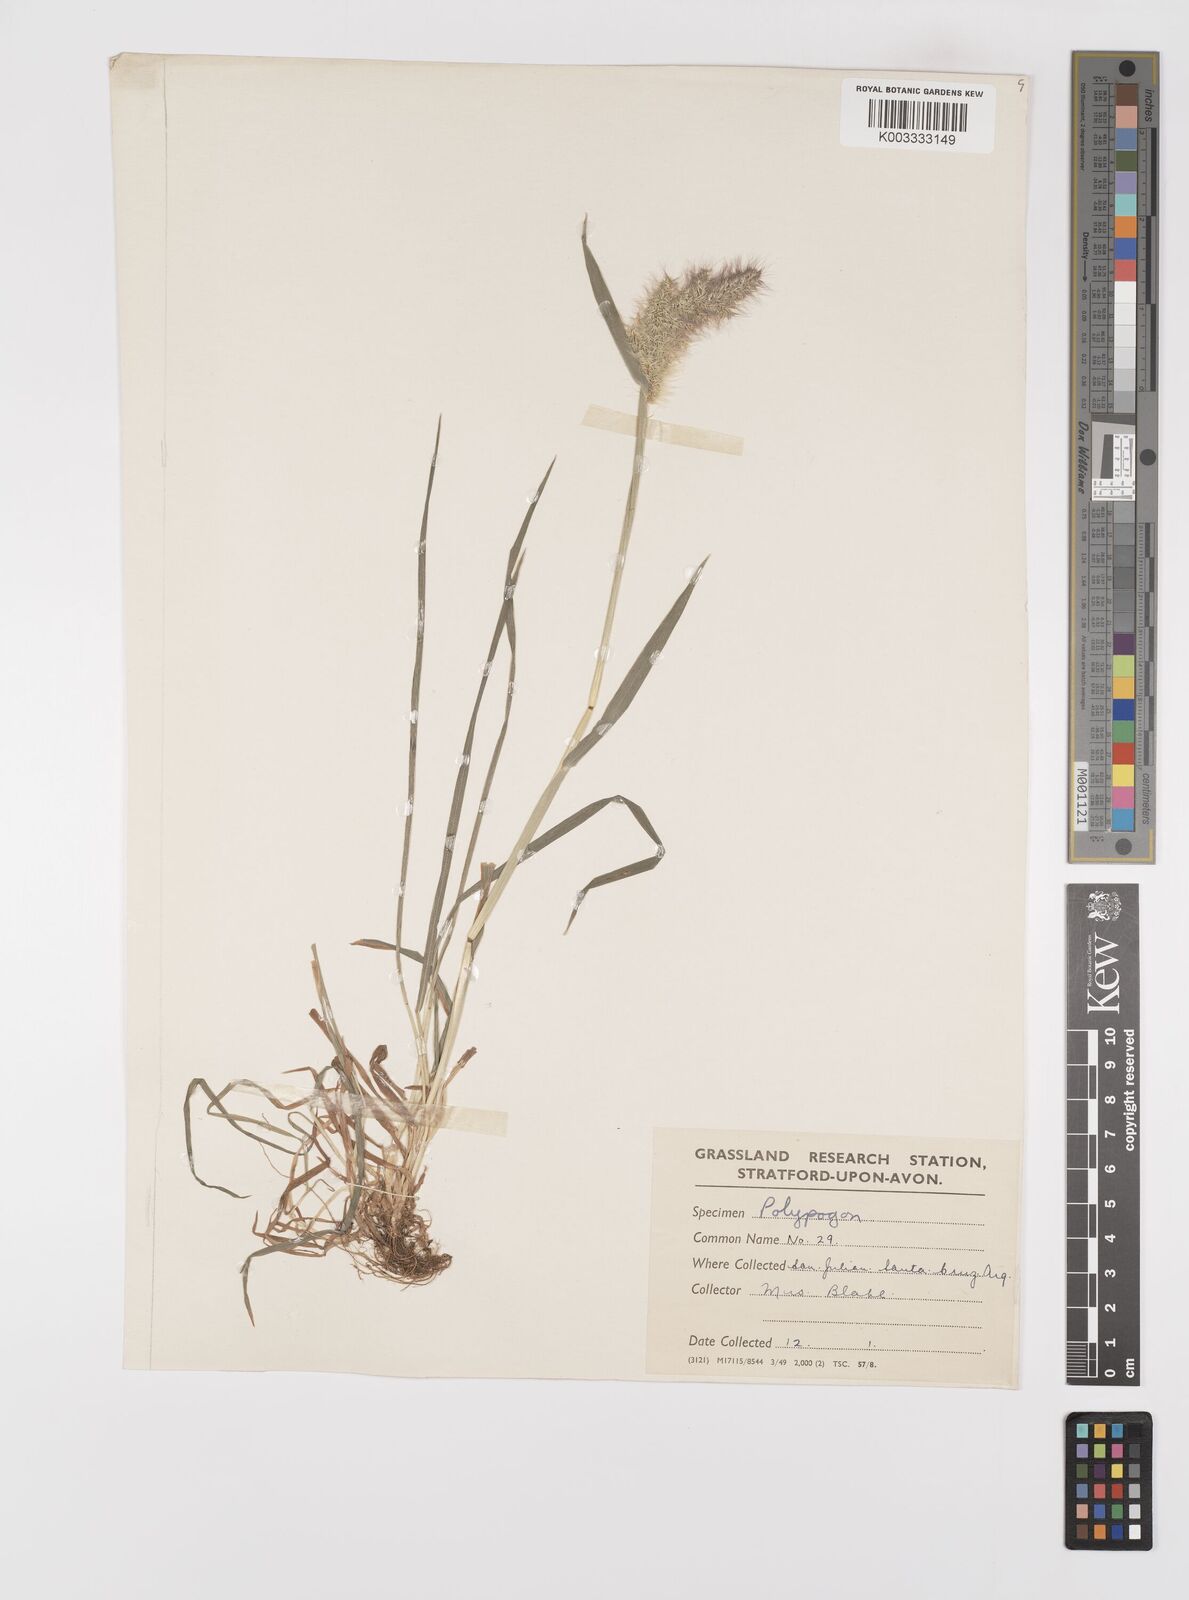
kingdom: Plantae
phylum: Tracheophyta
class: Liliopsida
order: Poales
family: Poaceae
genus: Polypogon
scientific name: Polypogon australis
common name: Chilean rabbitsfoot grass
